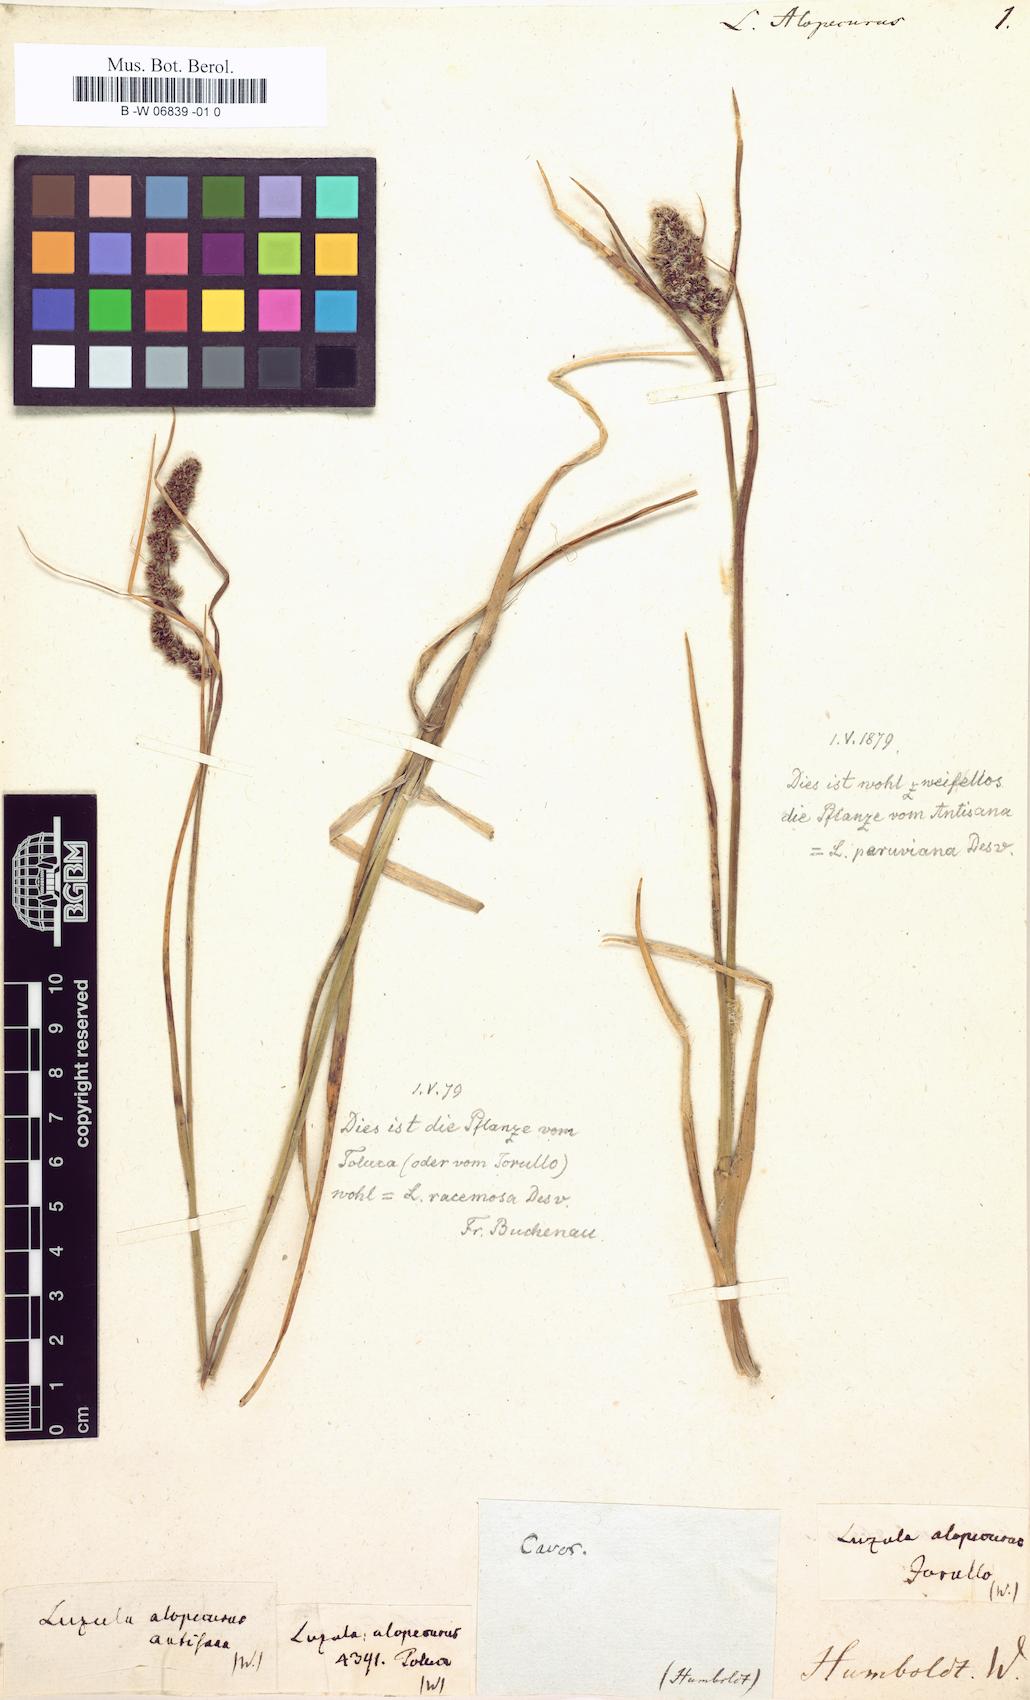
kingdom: Plantae
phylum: Tracheophyta
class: Liliopsida
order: Poales
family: Juncaceae
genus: Luzula
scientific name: Luzula alopecurus
